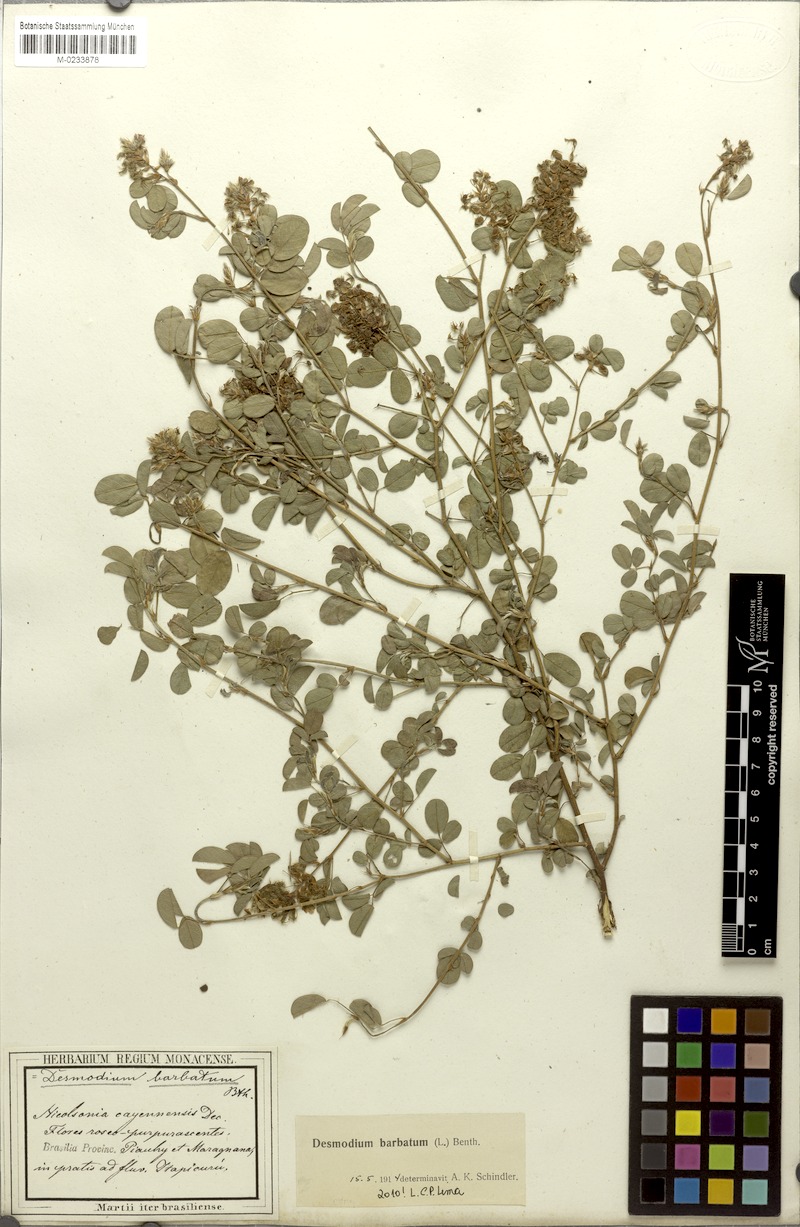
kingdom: Plantae
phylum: Tracheophyta
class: Magnoliopsida
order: Fabales
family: Fabaceae
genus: Grona
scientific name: Grona barbata
